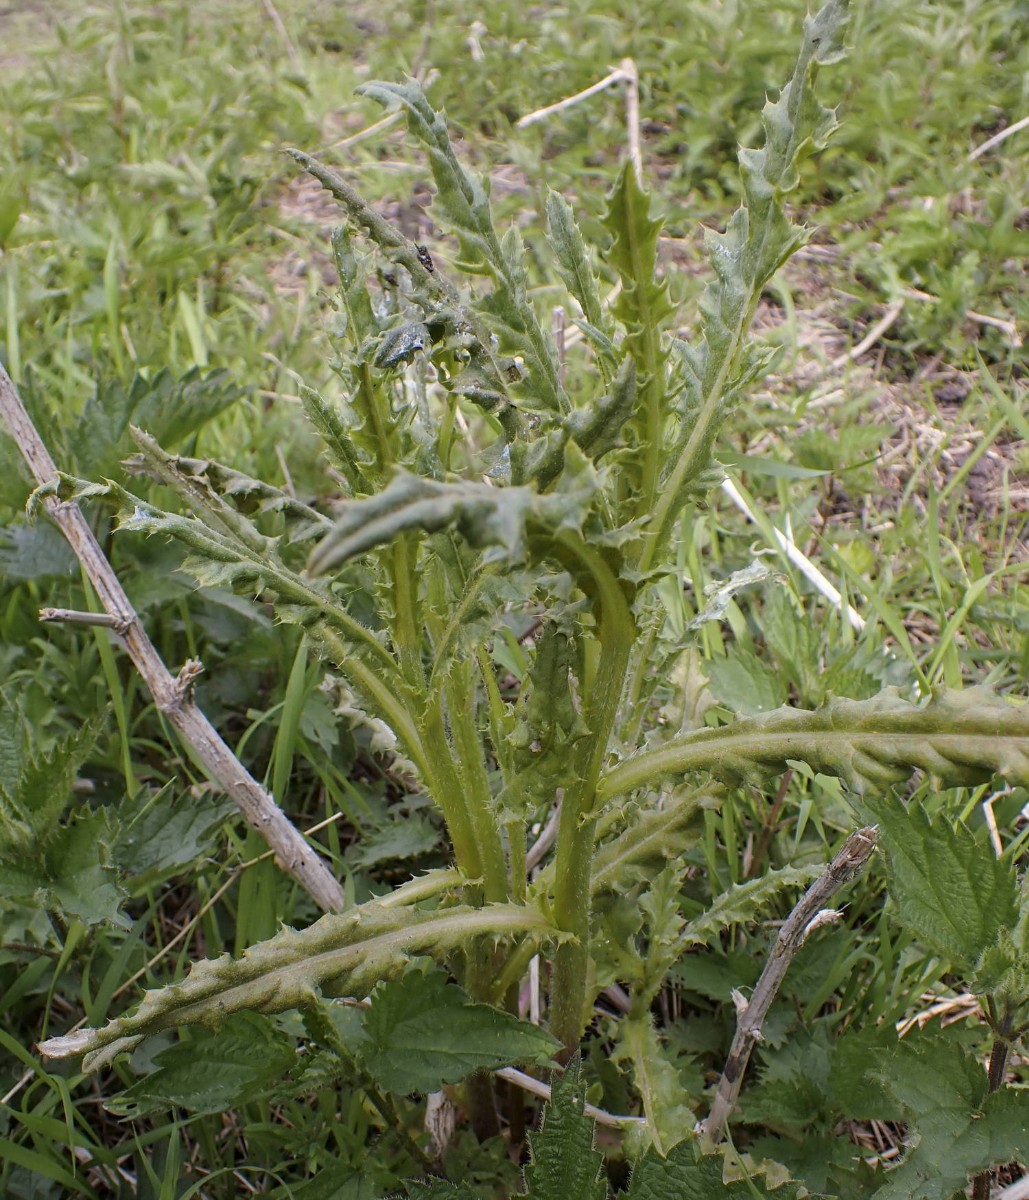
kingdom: Fungi
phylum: Basidiomycota
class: Pucciniomycetes
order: Pucciniales
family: Pucciniaceae
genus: Puccinia
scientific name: Puccinia suaveolens
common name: tidsel-tvecellerust
